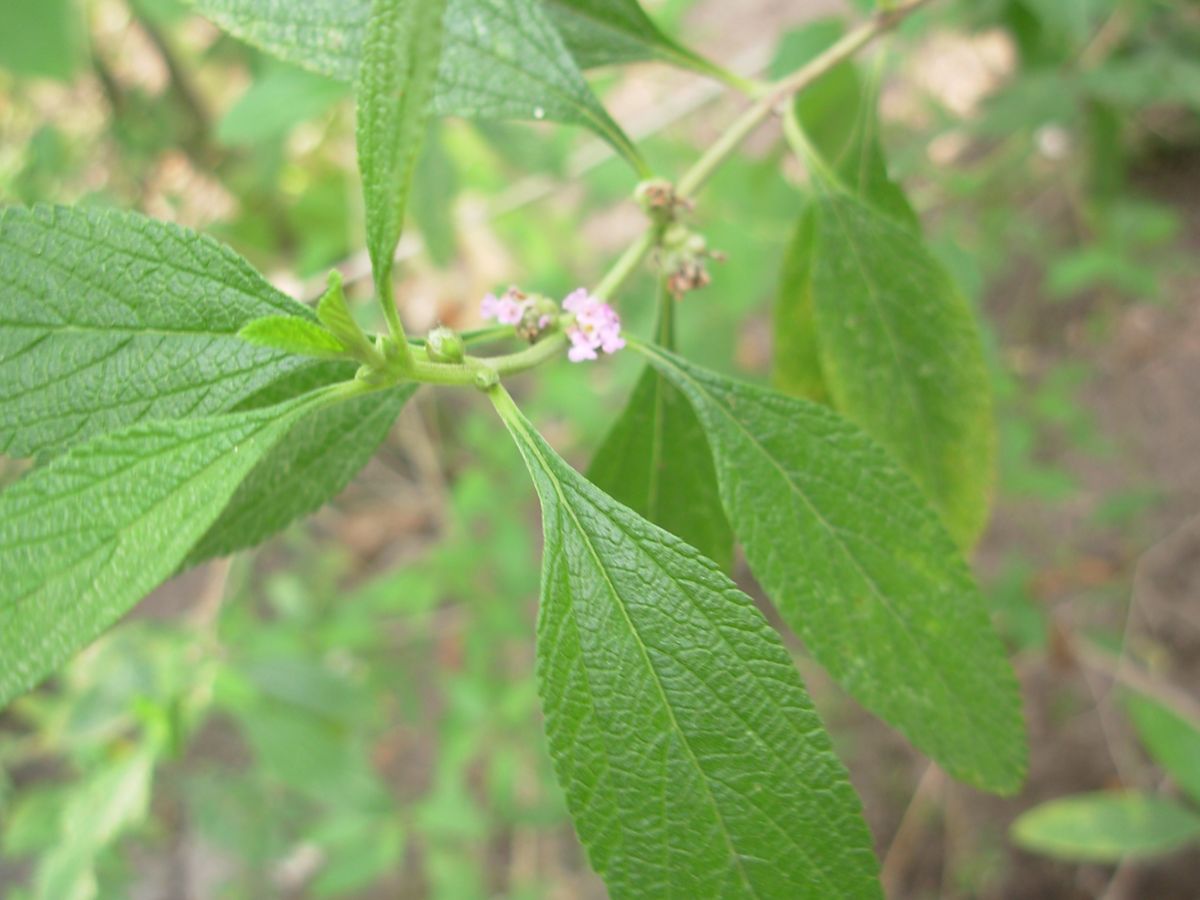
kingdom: Plantae
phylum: Tracheophyta
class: Magnoliopsida
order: Lamiales
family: Verbenaceae
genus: Lippia
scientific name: Lippia alba
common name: Bushy matgrass
